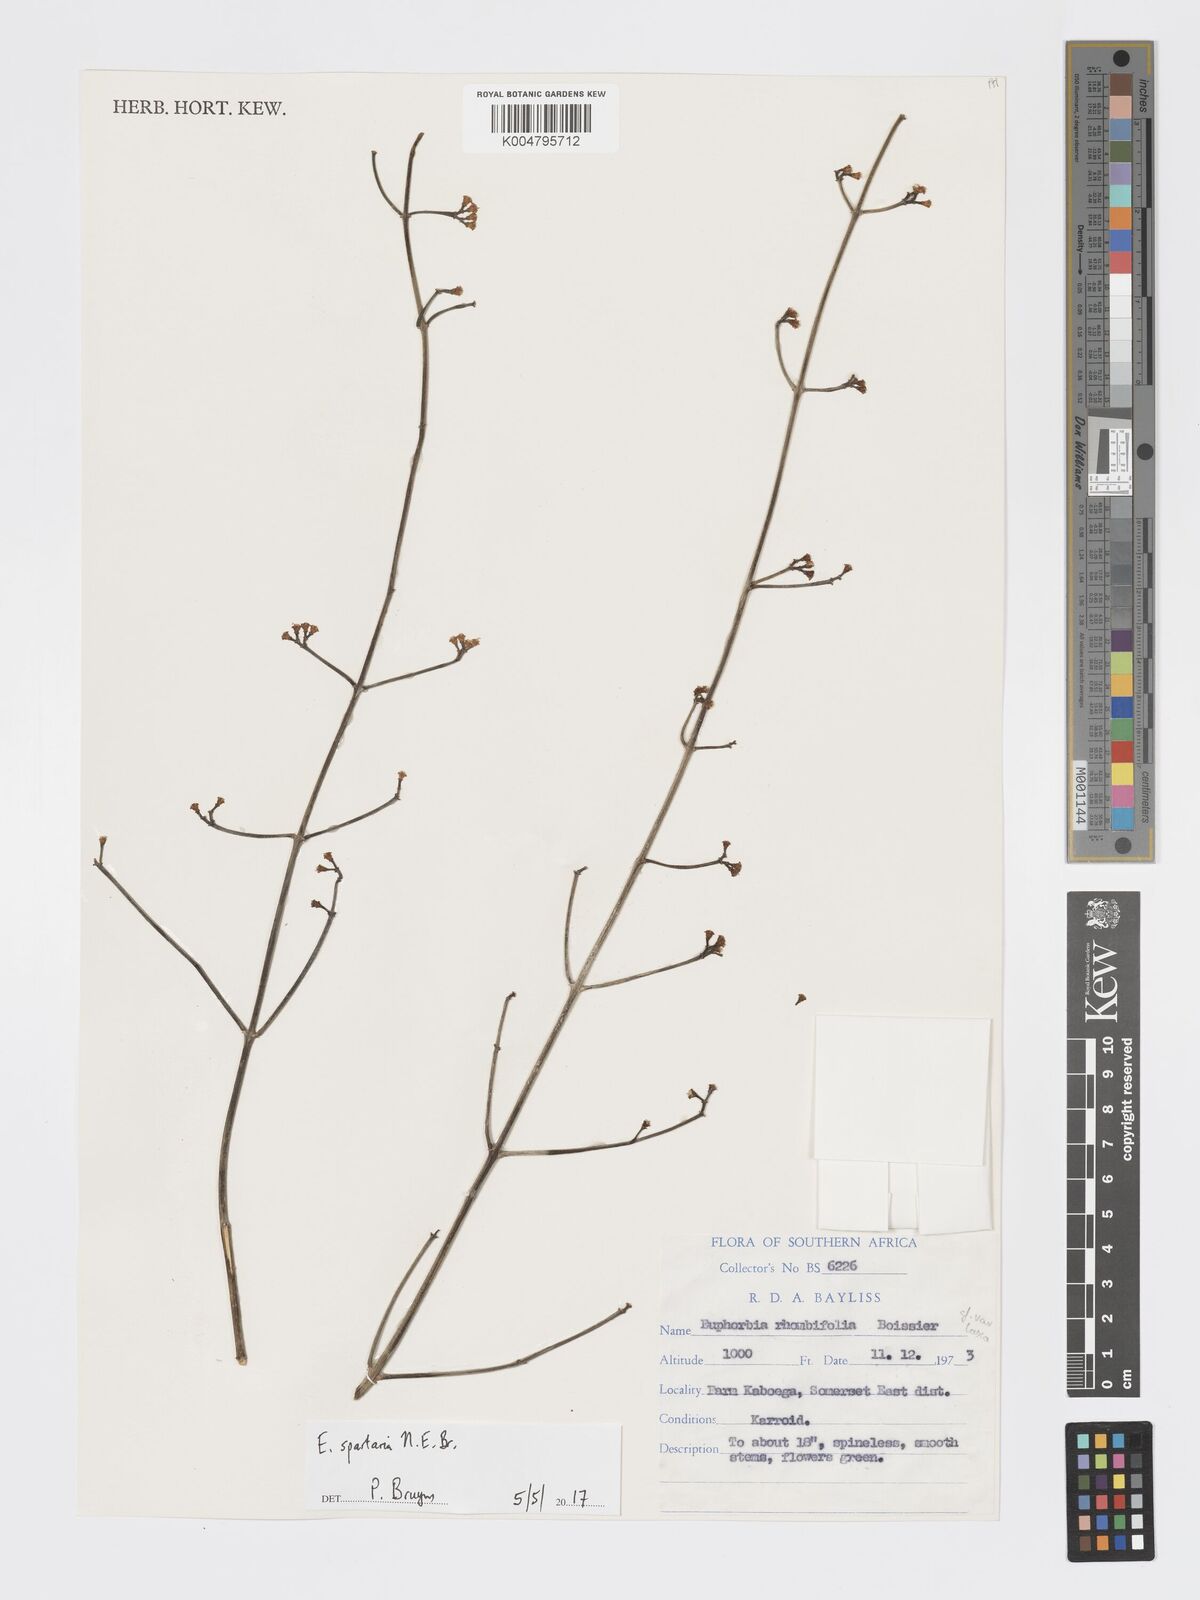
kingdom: Plantae
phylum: Tracheophyta
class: Magnoliopsida
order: Malpighiales
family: Euphorbiaceae
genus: Euphorbia
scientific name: Euphorbia spartaria
